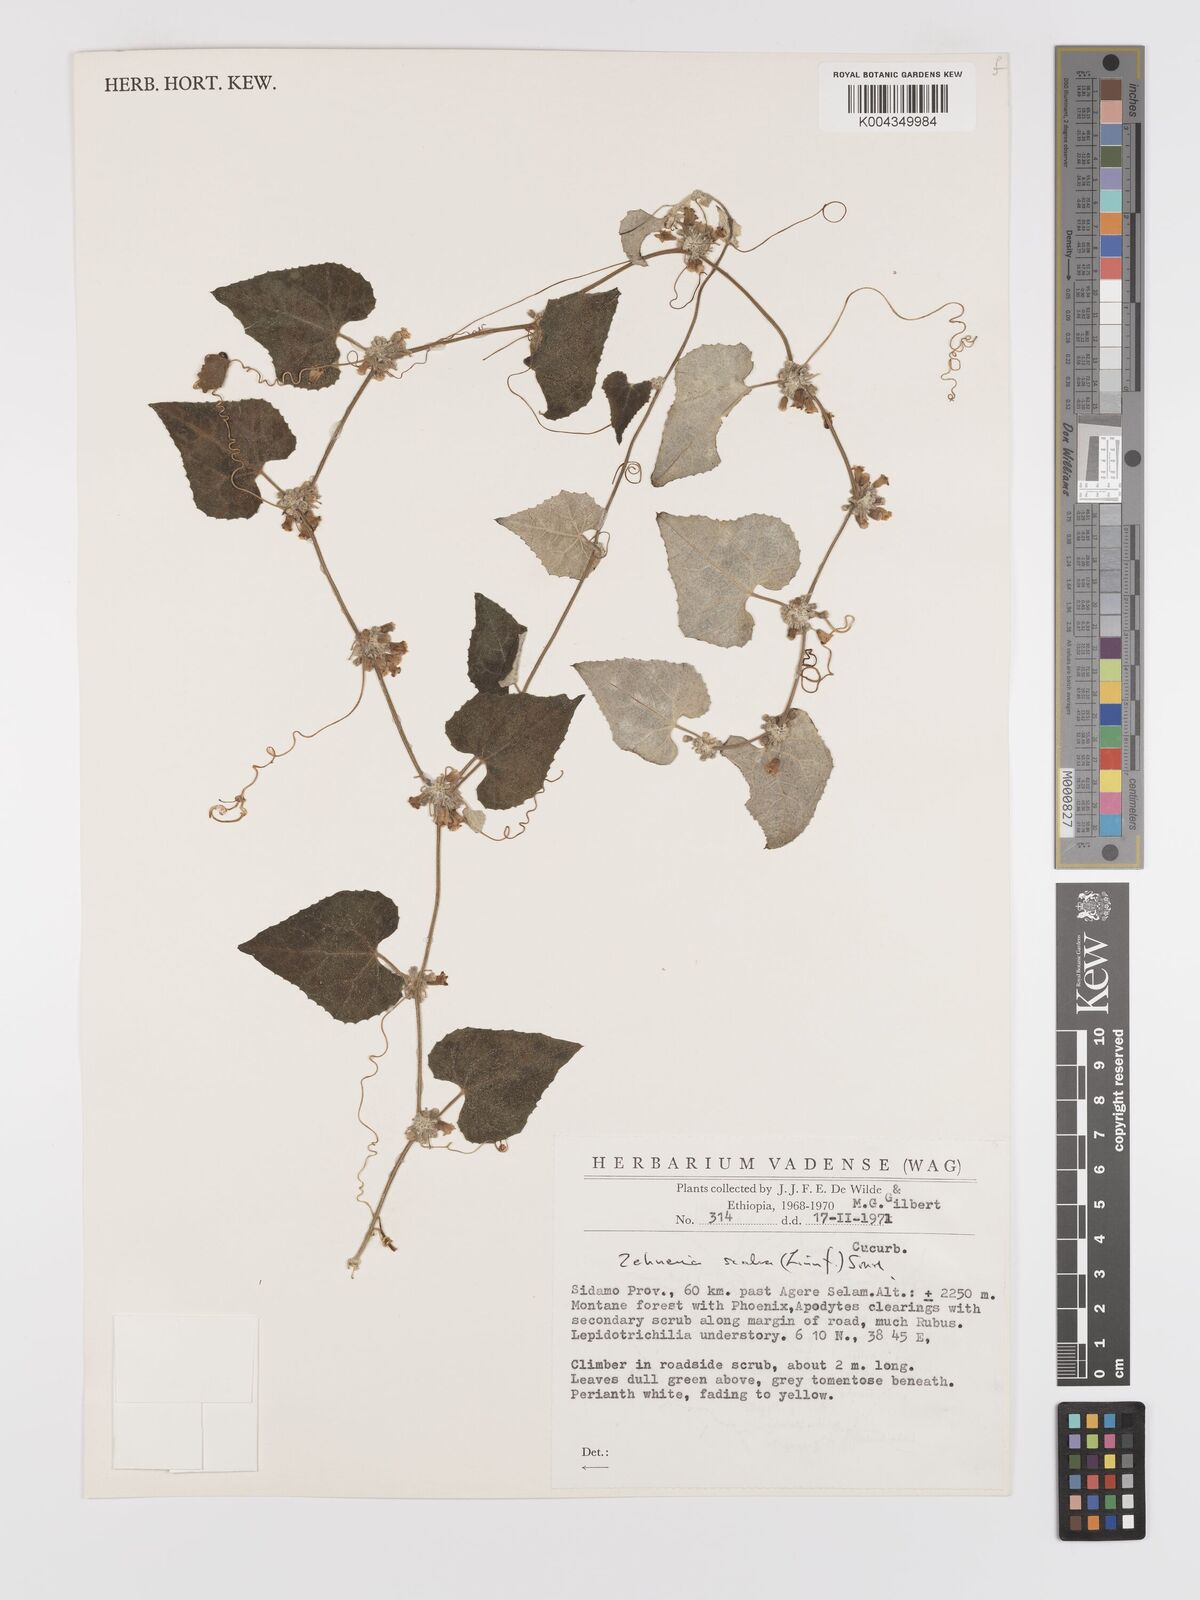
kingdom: Plantae
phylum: Tracheophyta
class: Magnoliopsida
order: Cucurbitales
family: Cucurbitaceae
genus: Zehneria
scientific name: Zehneria scabra
